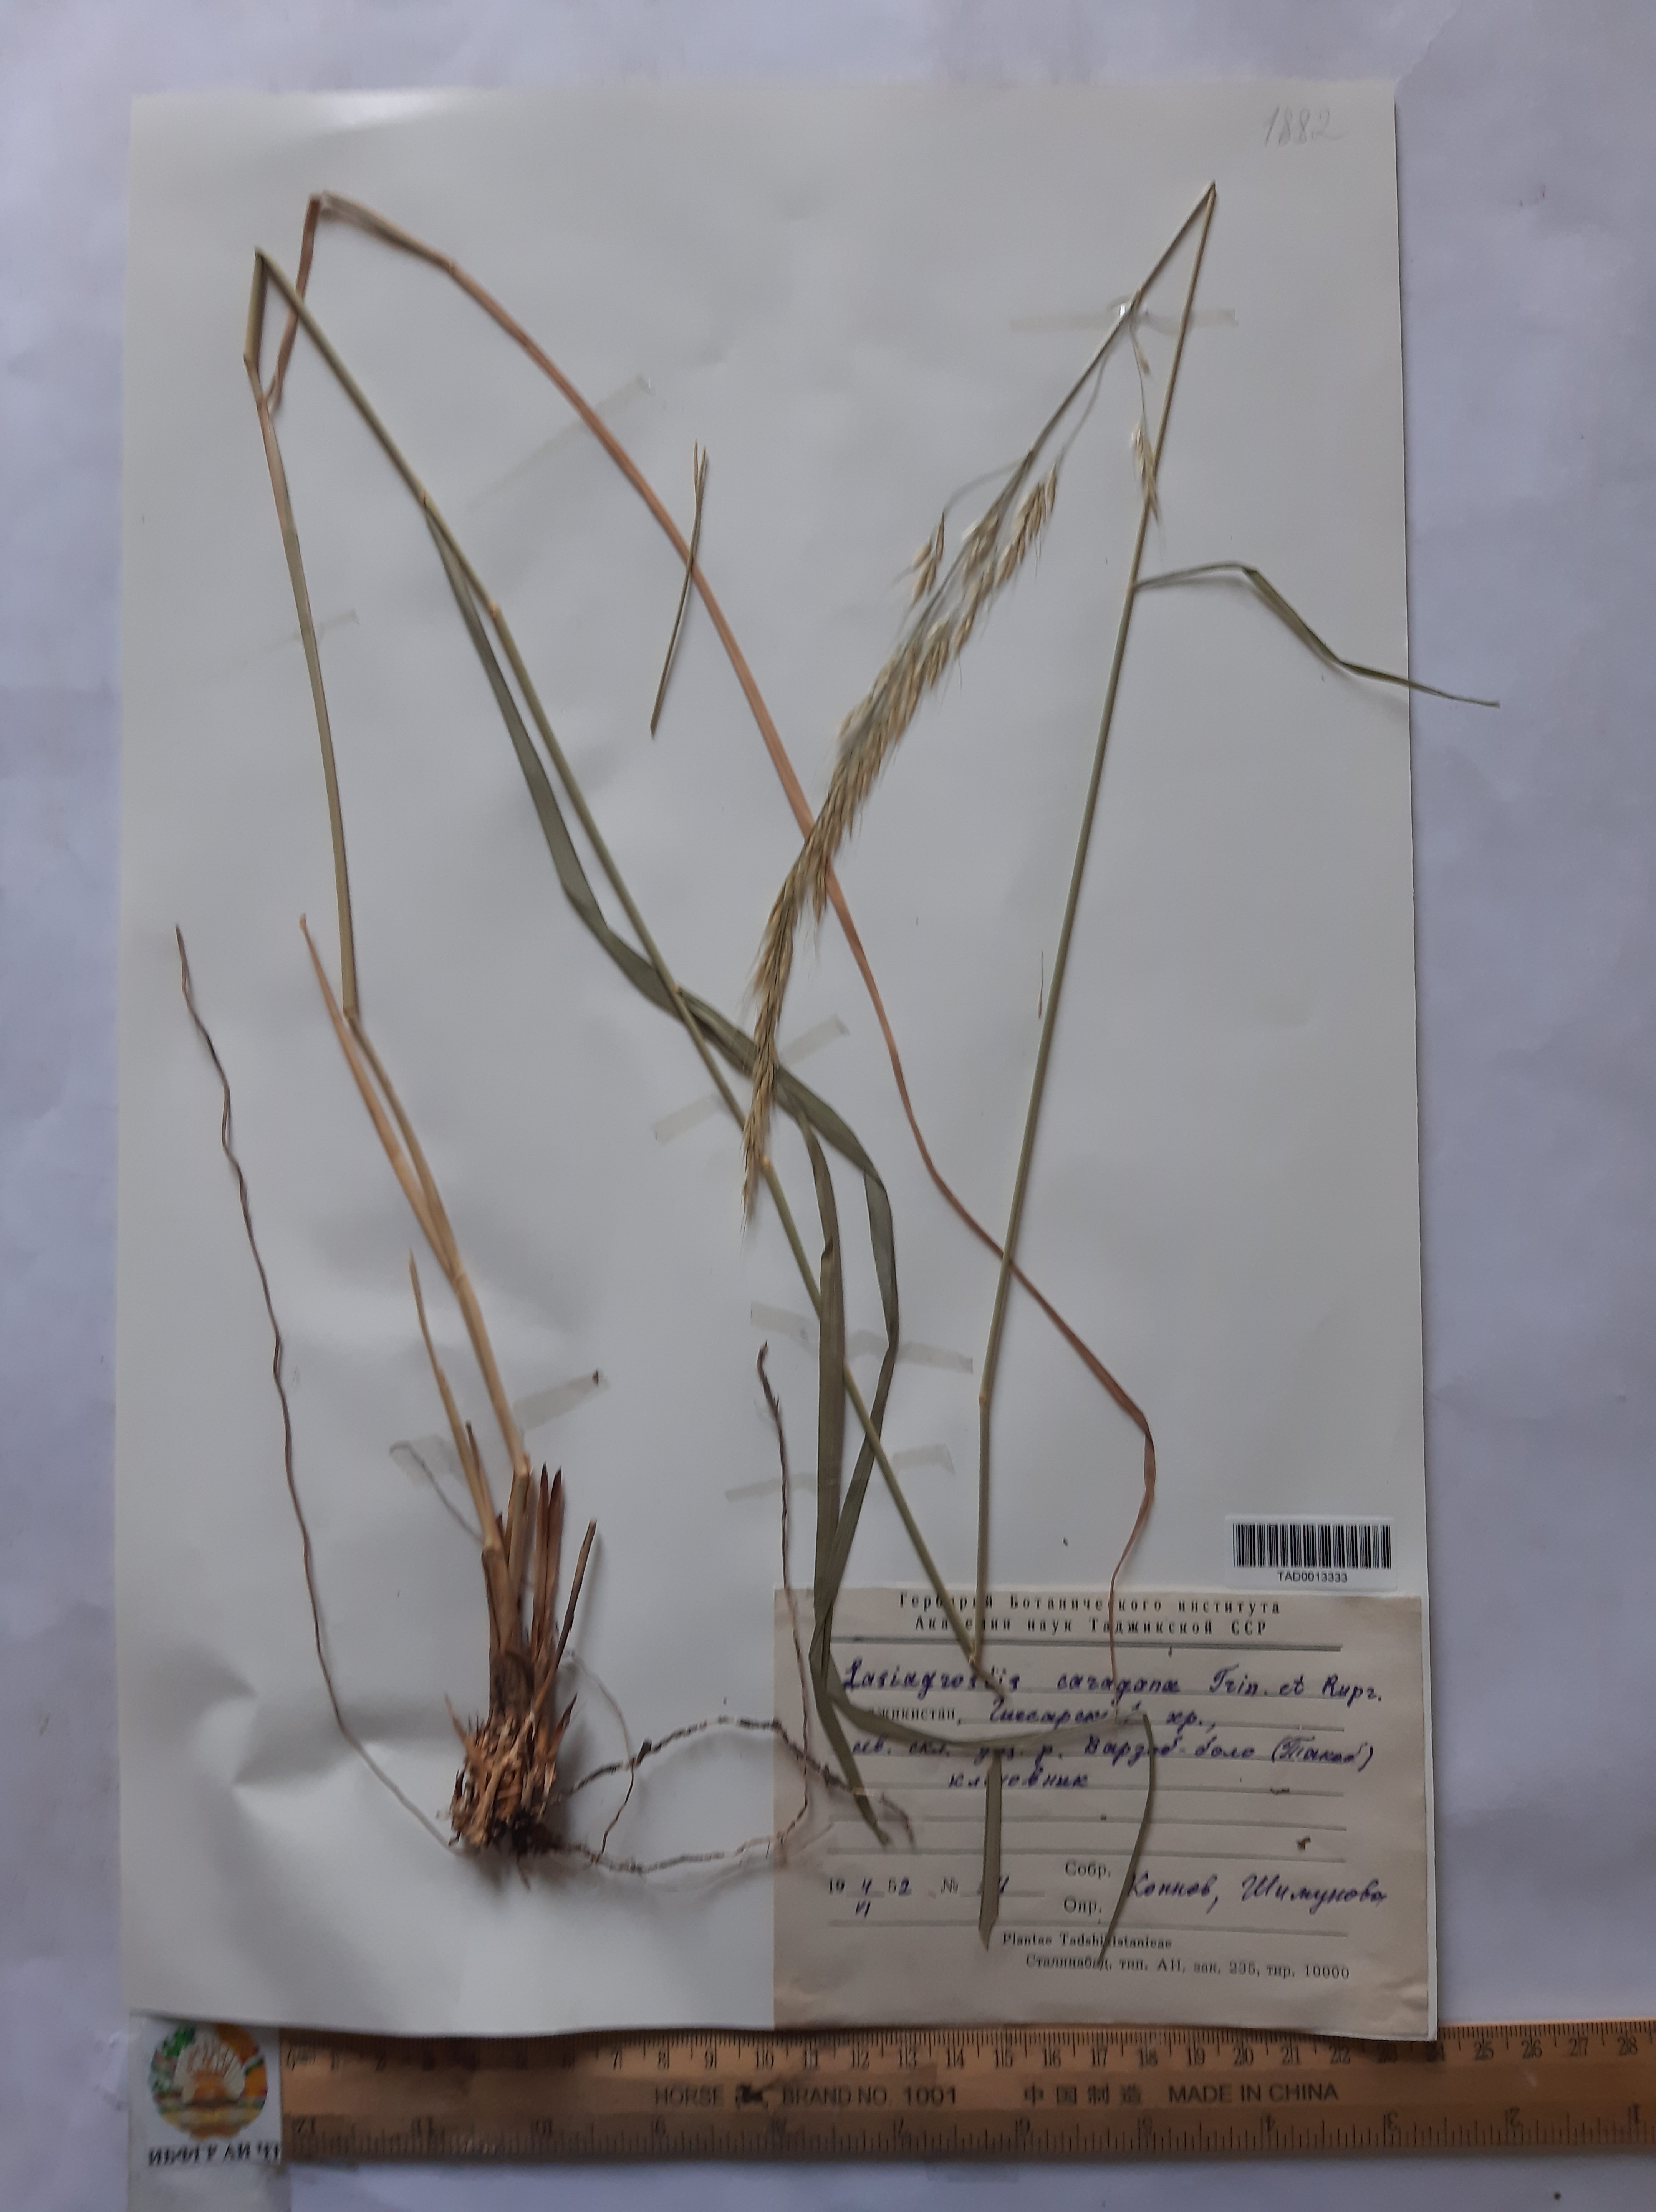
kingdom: Plantae
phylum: Tracheophyta
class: Liliopsida
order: Poales
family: Poaceae
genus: Achnatherum
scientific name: Achnatherum turcomanicum
